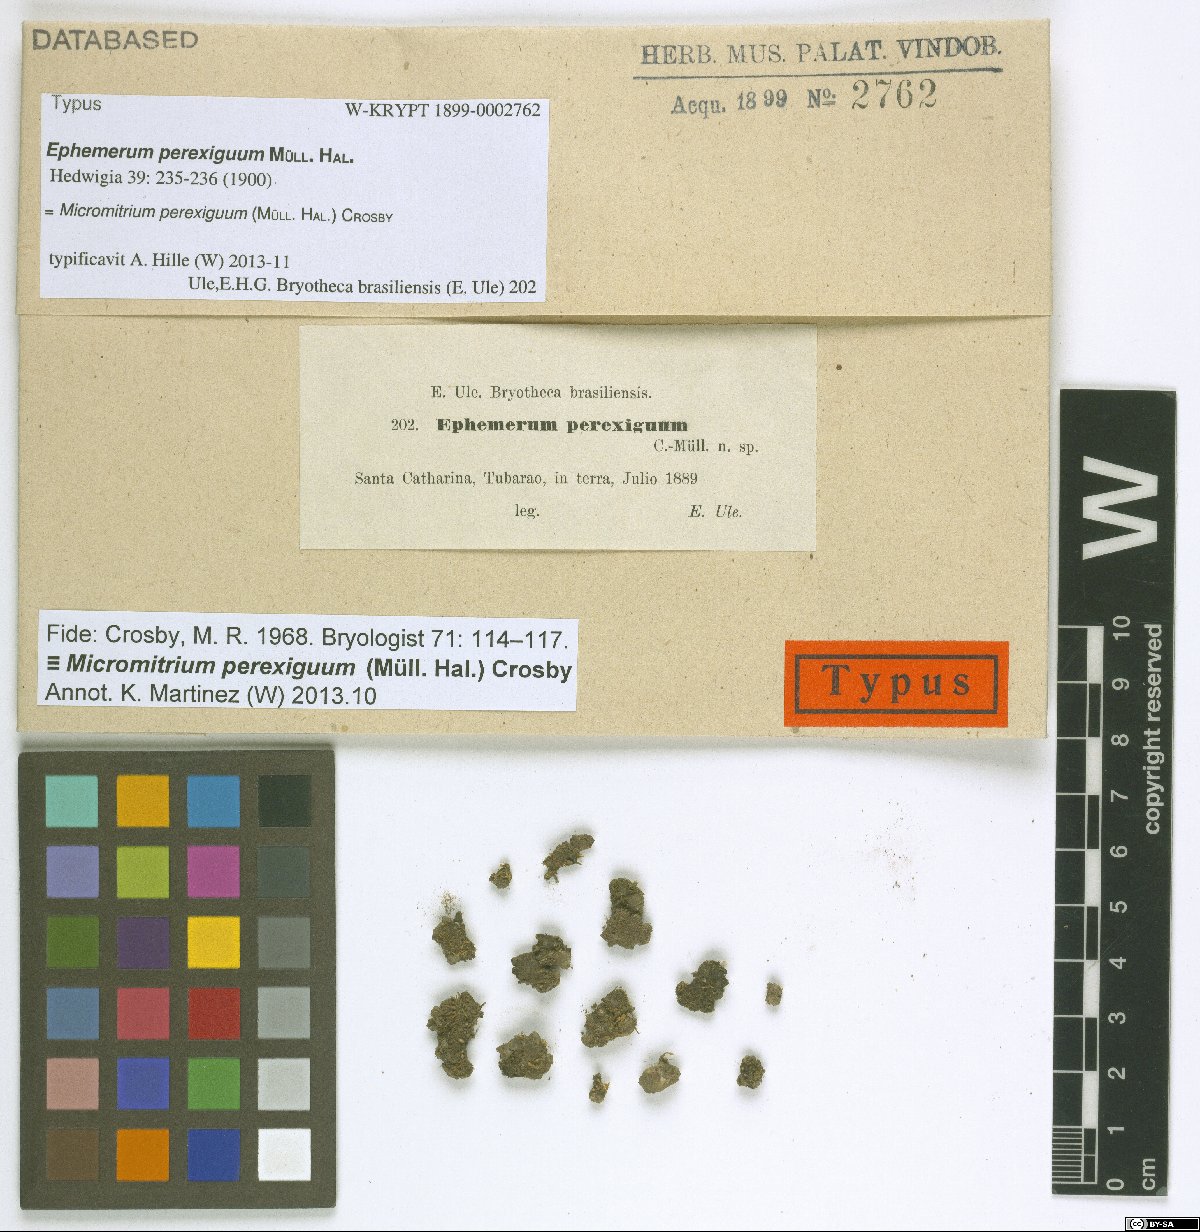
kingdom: Plantae
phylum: Bryophyta
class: Bryopsida
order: Dicranales
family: Micromitriaceae
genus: Micromitrium
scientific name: Micromitrium perexiguum
